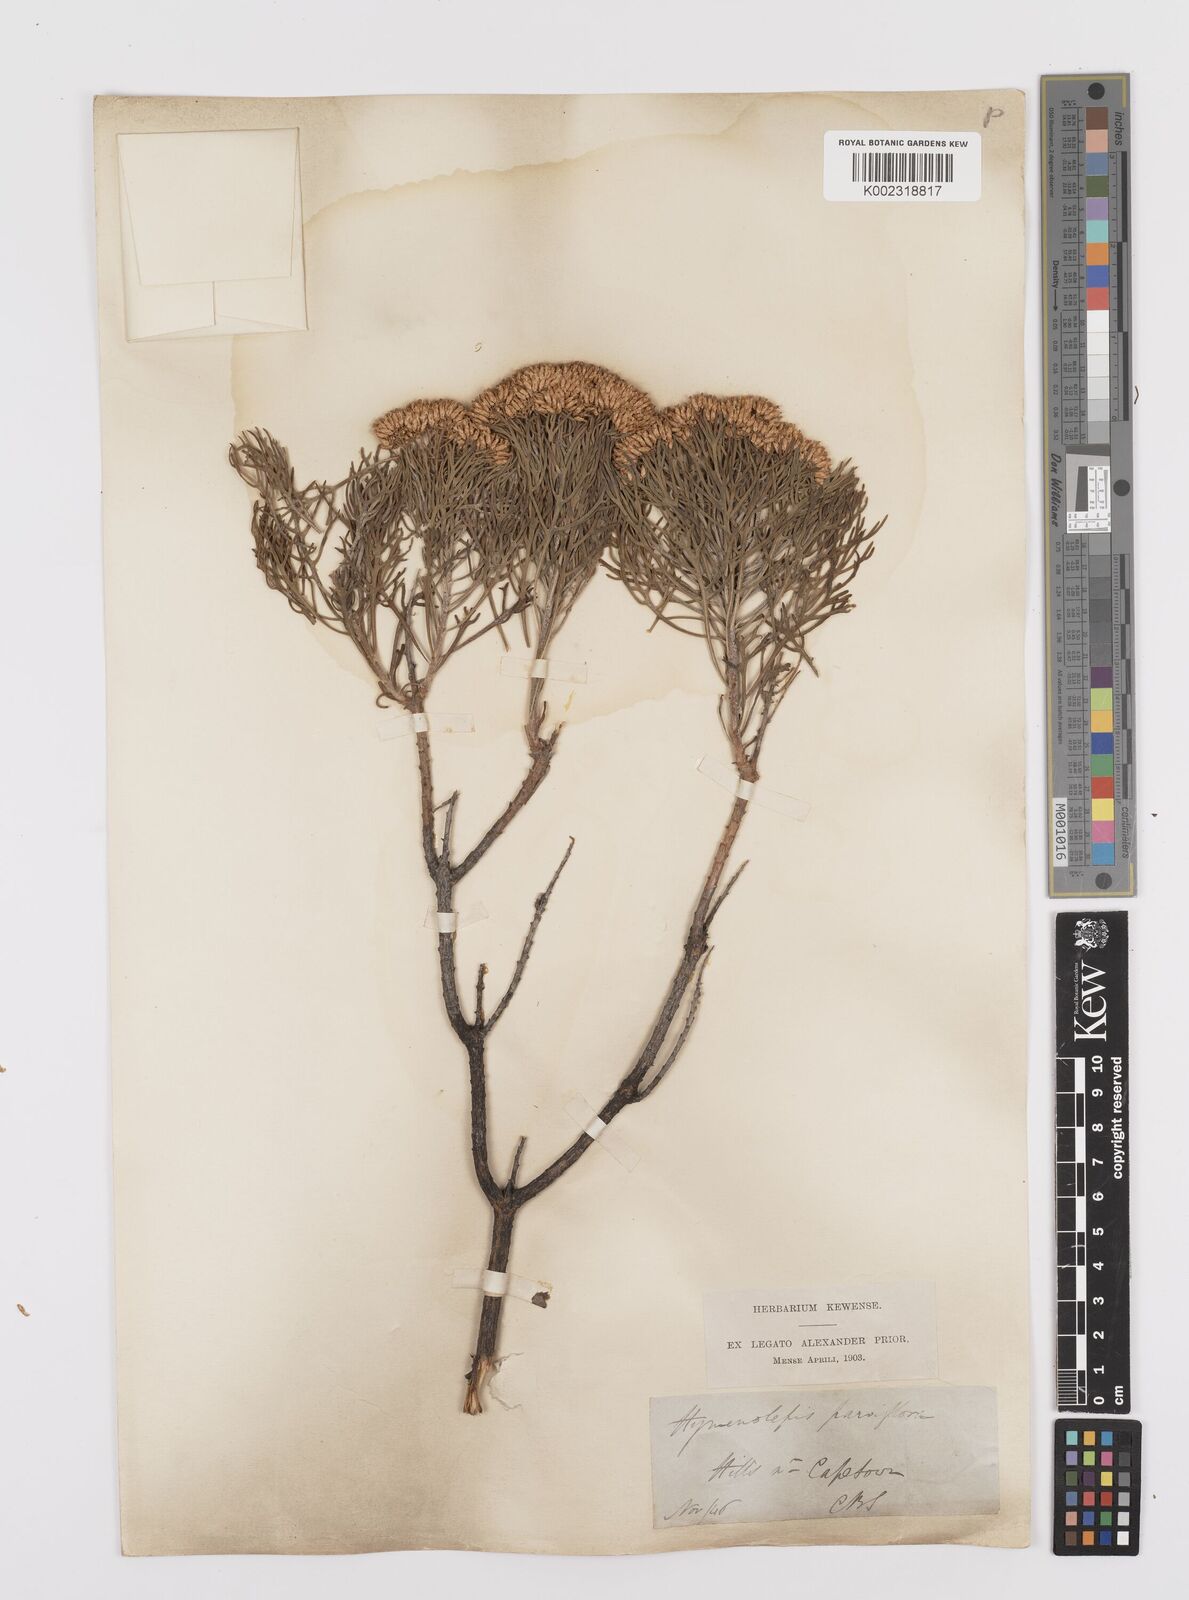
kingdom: Plantae
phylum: Tracheophyta
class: Magnoliopsida
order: Asterales
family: Asteraceae
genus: Hymenolepis
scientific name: Hymenolepis crithmifolia
